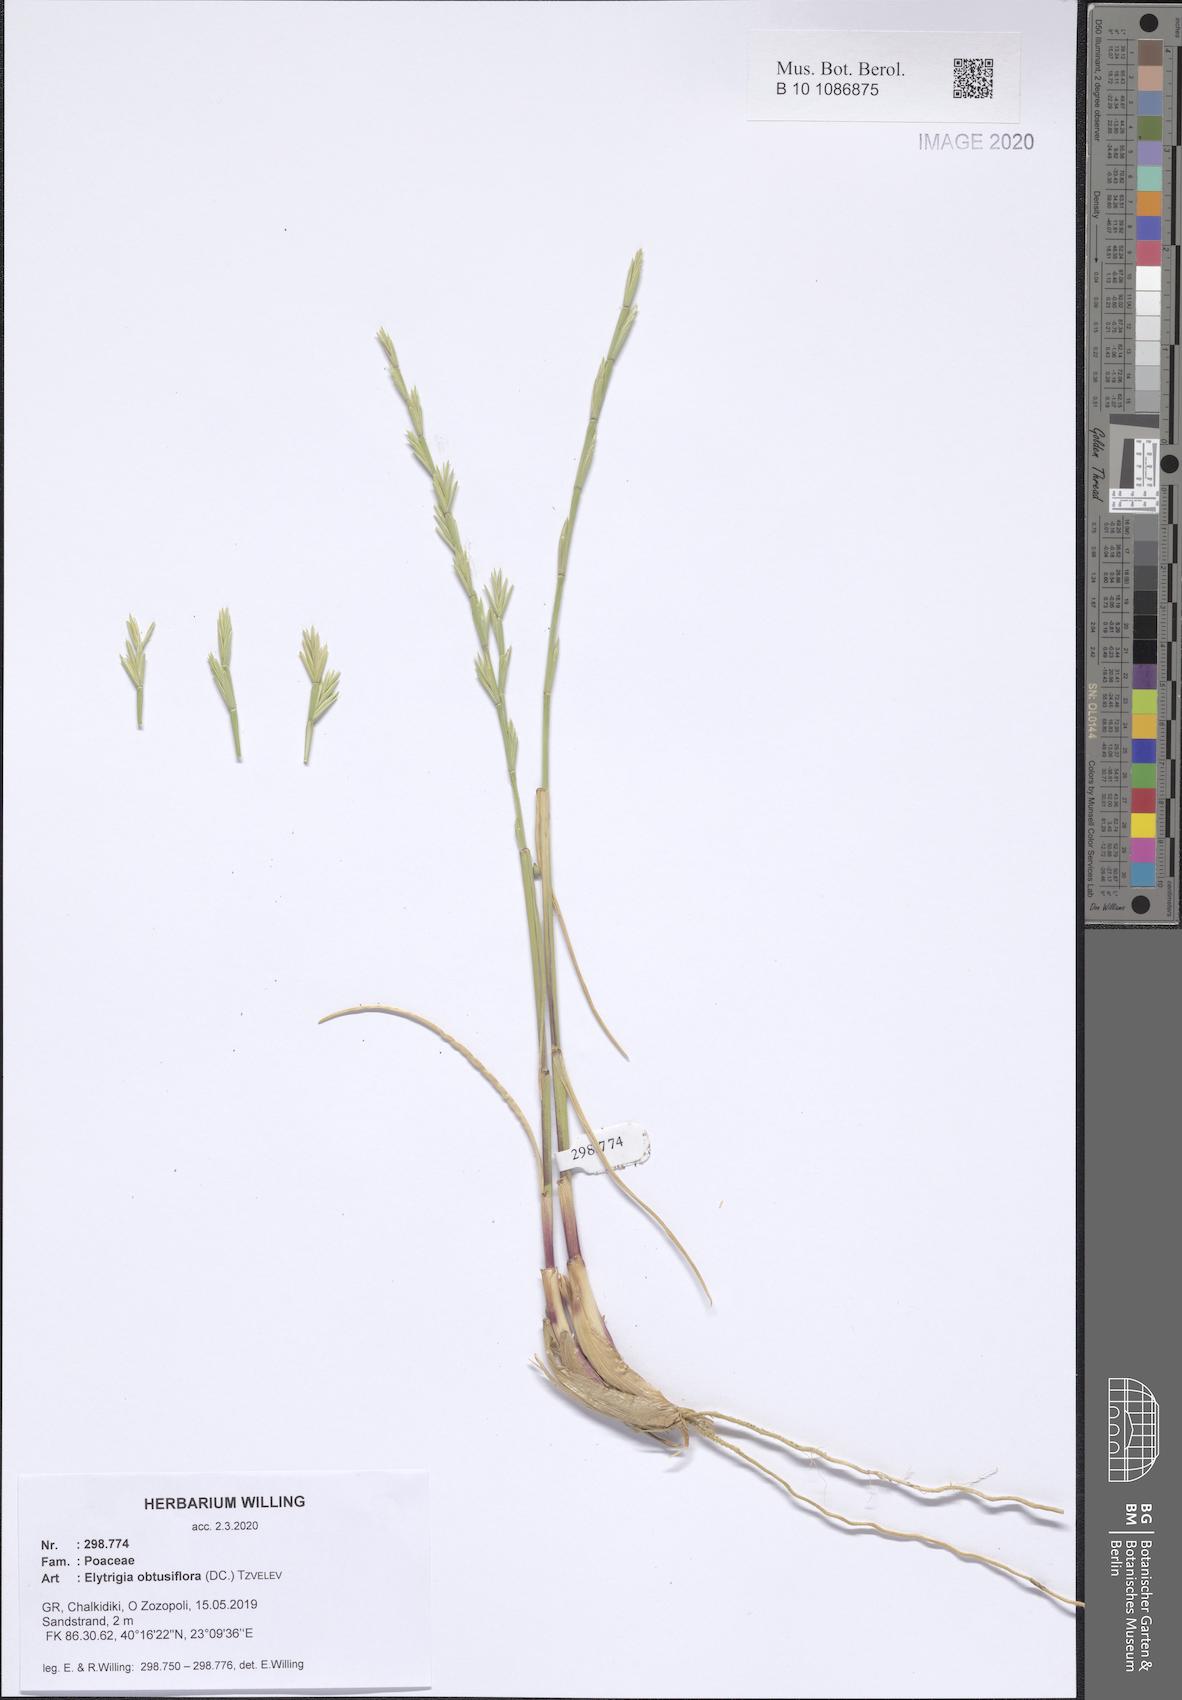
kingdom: Plantae
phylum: Tracheophyta
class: Liliopsida
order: Poales
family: Poaceae
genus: Thinopyrum
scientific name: Thinopyrum obtusiflorum
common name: Eurasian quackgrass
